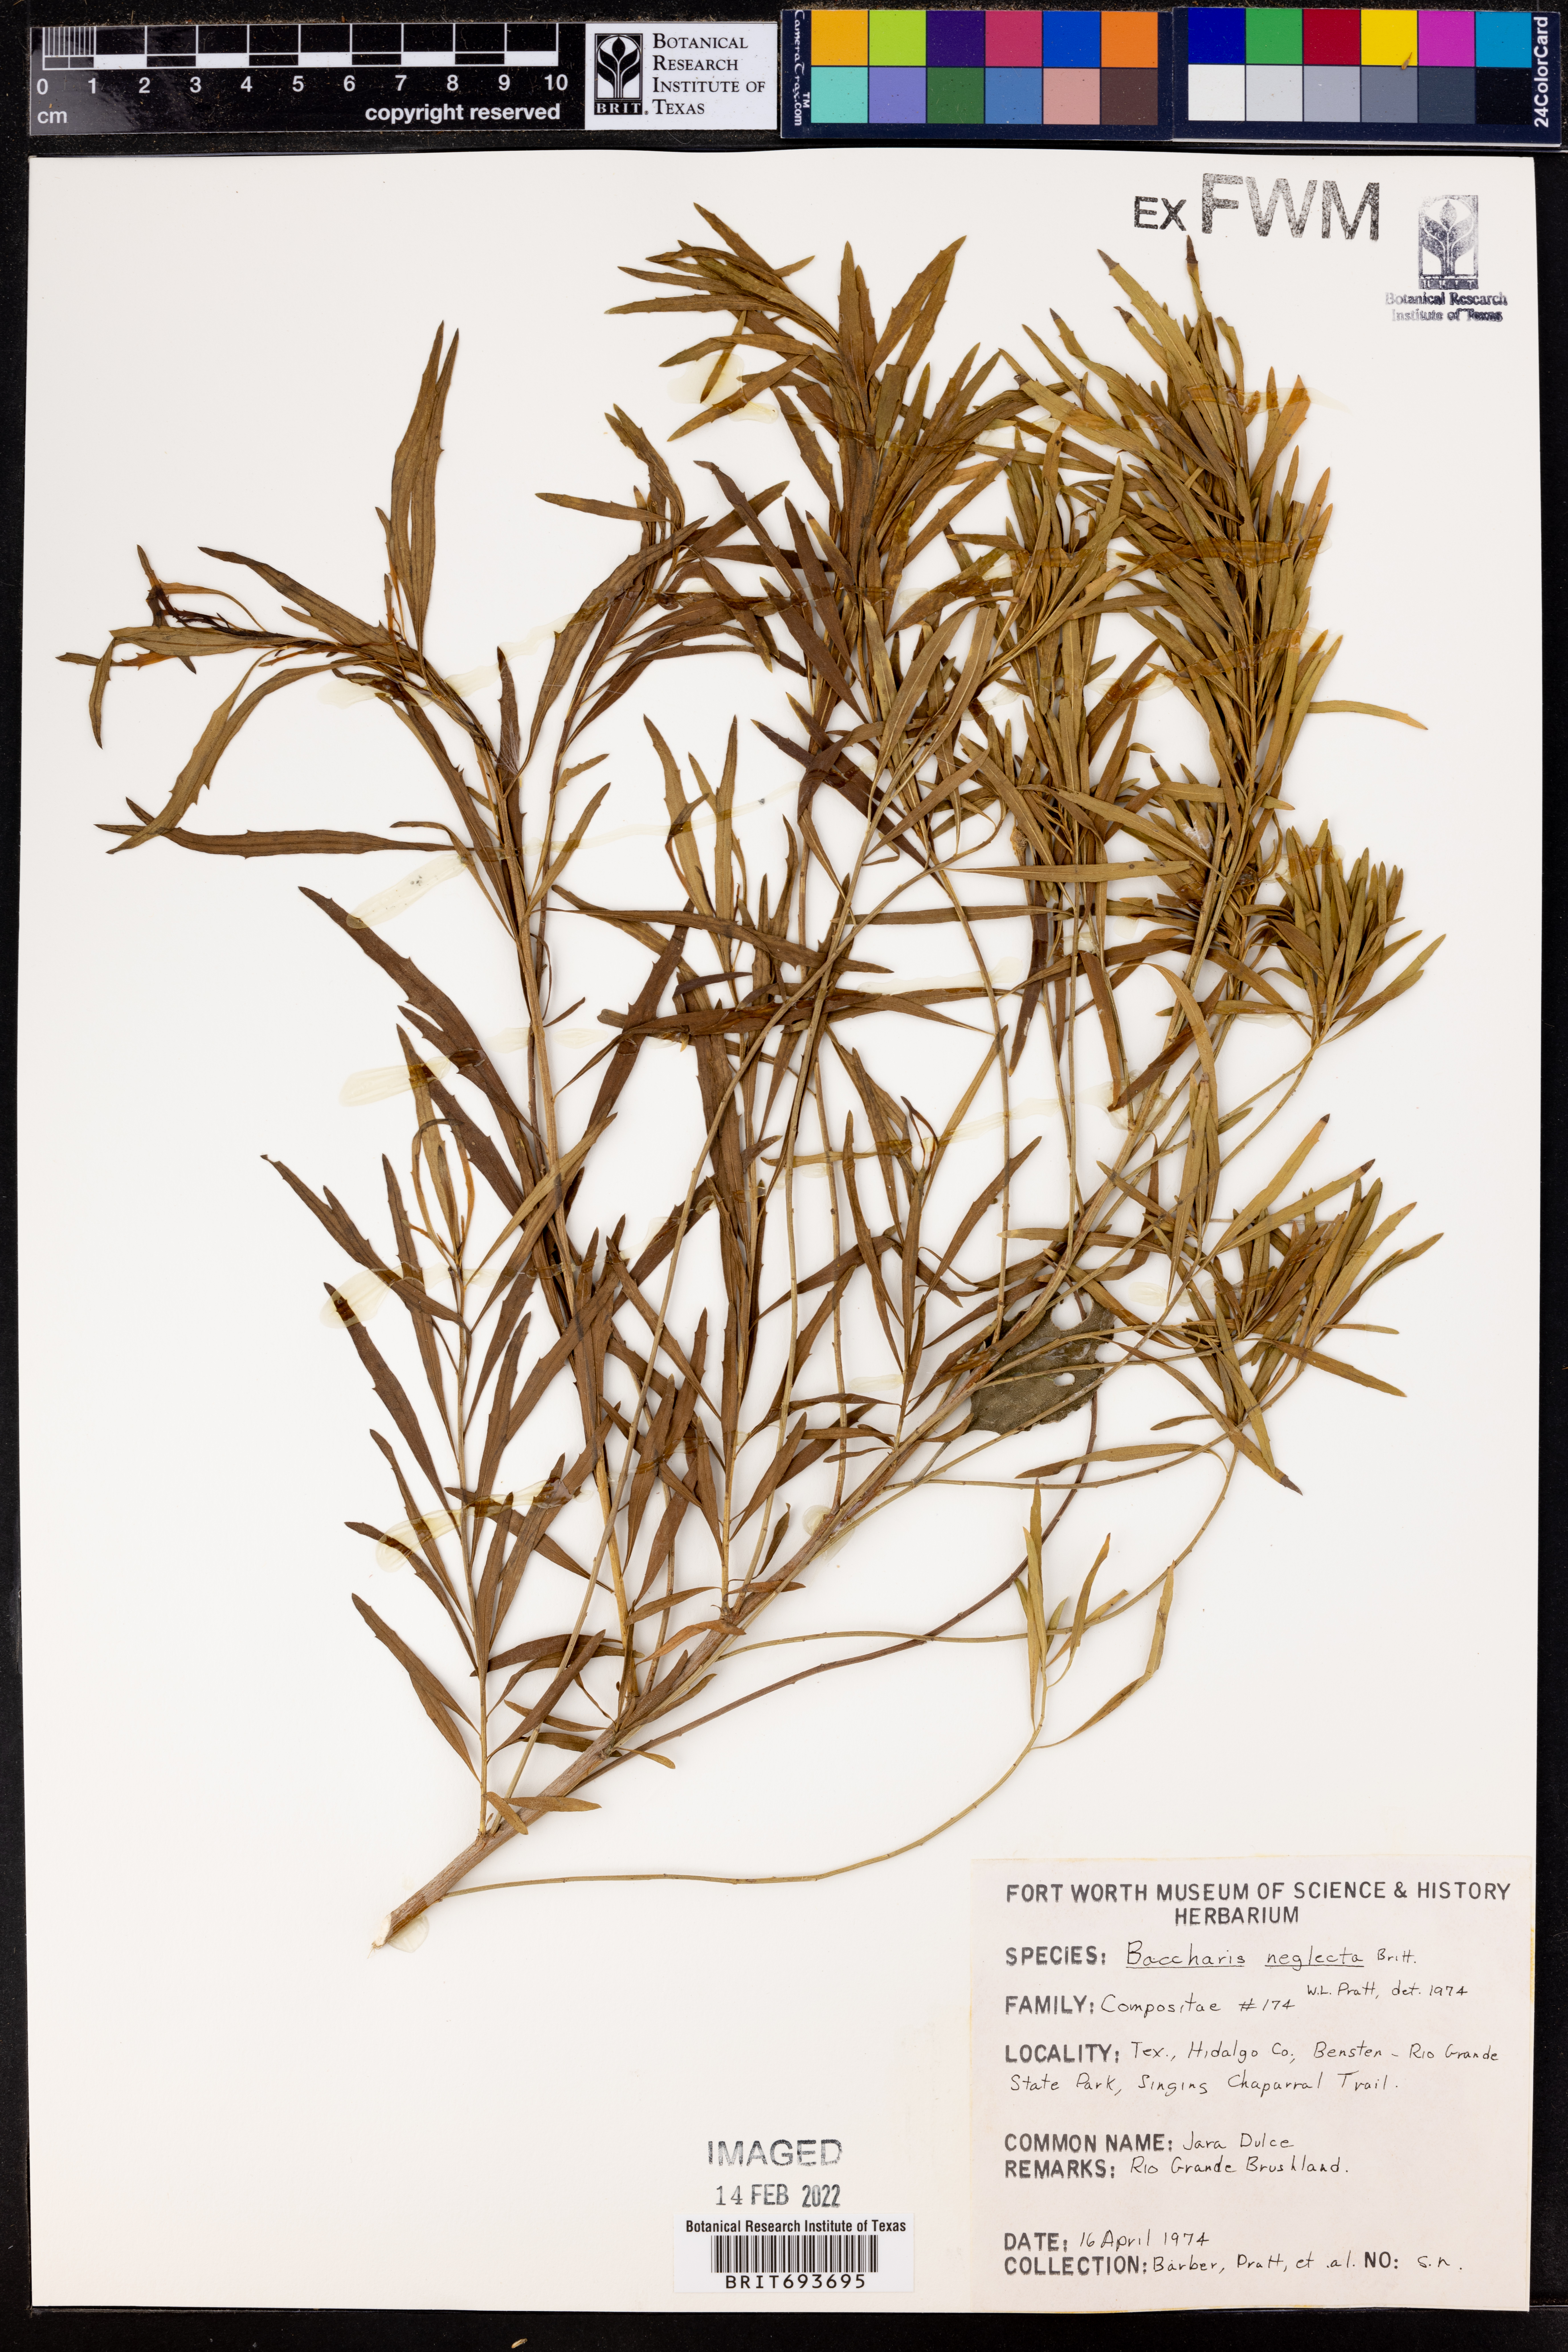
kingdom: Plantae
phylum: Tracheophyta
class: Magnoliopsida
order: Asterales
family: Asteraceae
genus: Baccharis
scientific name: Baccharis neglecta
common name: Roosevelt-weed
